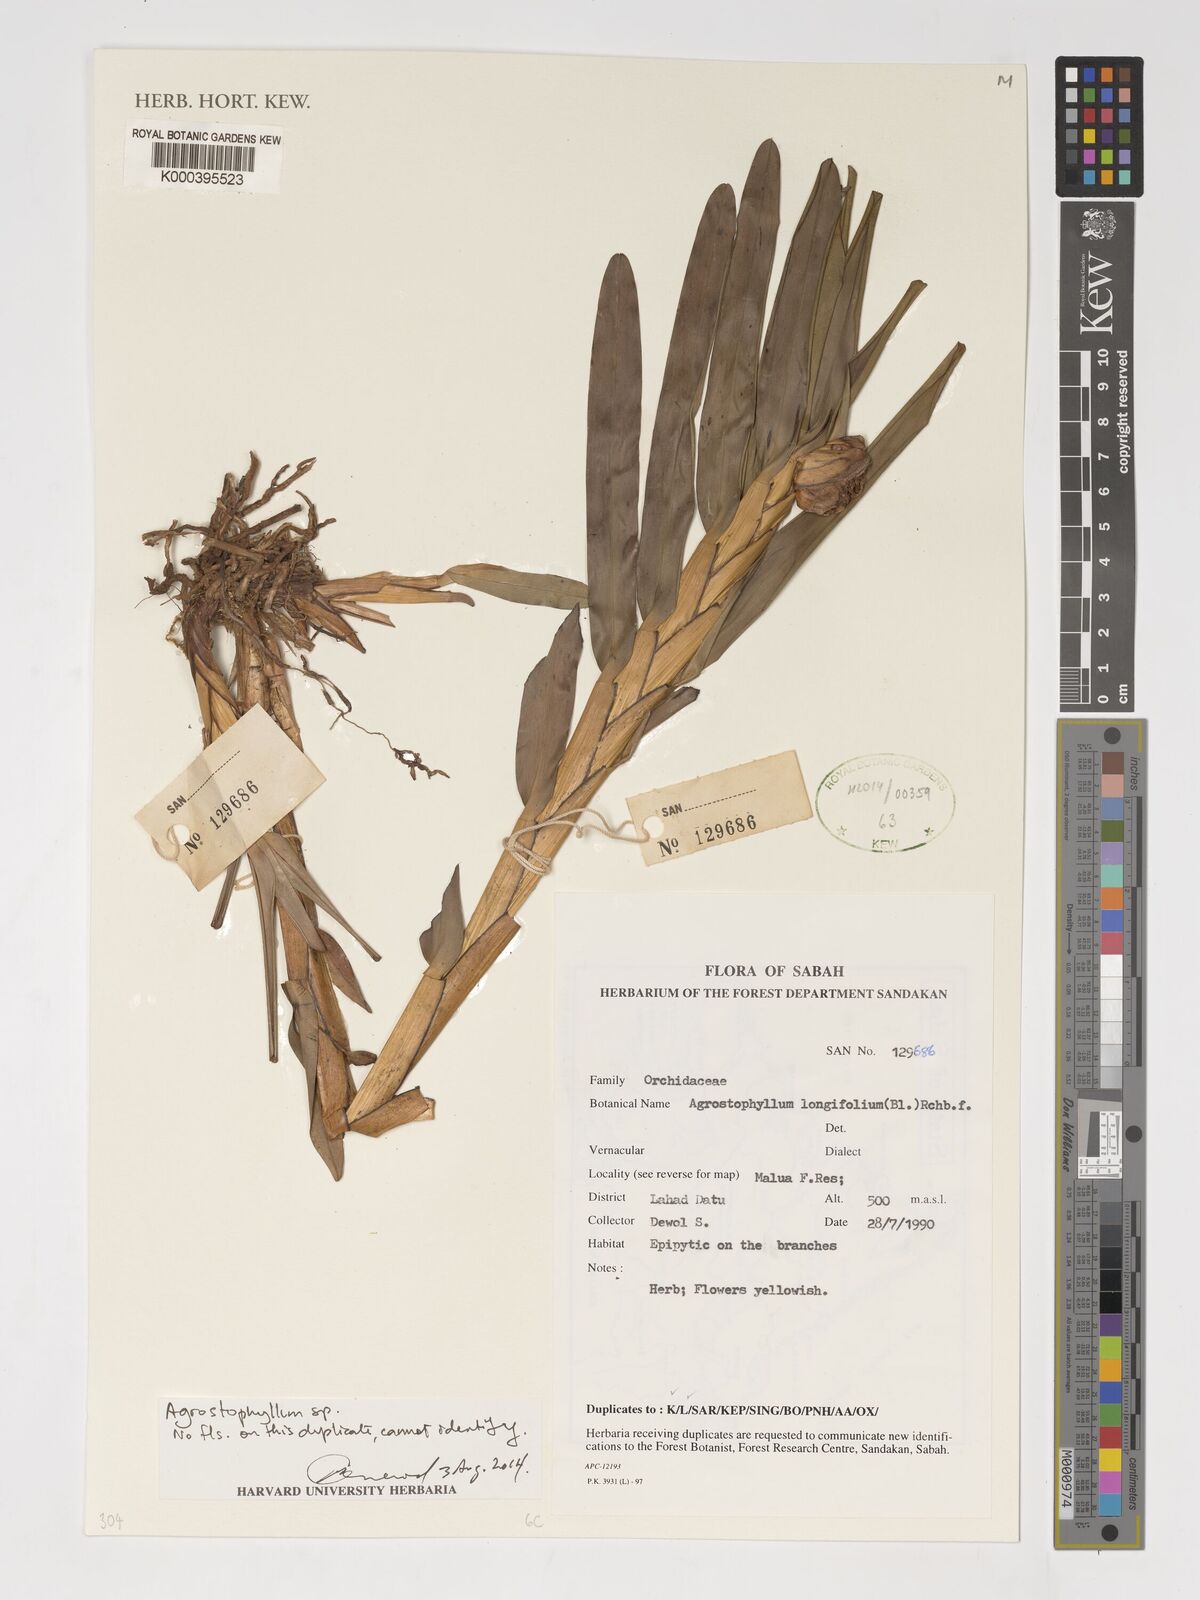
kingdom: Plantae
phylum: Tracheophyta
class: Liliopsida
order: Asparagales
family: Orchidaceae
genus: Agrostophyllum
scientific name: Agrostophyllum longifolium
